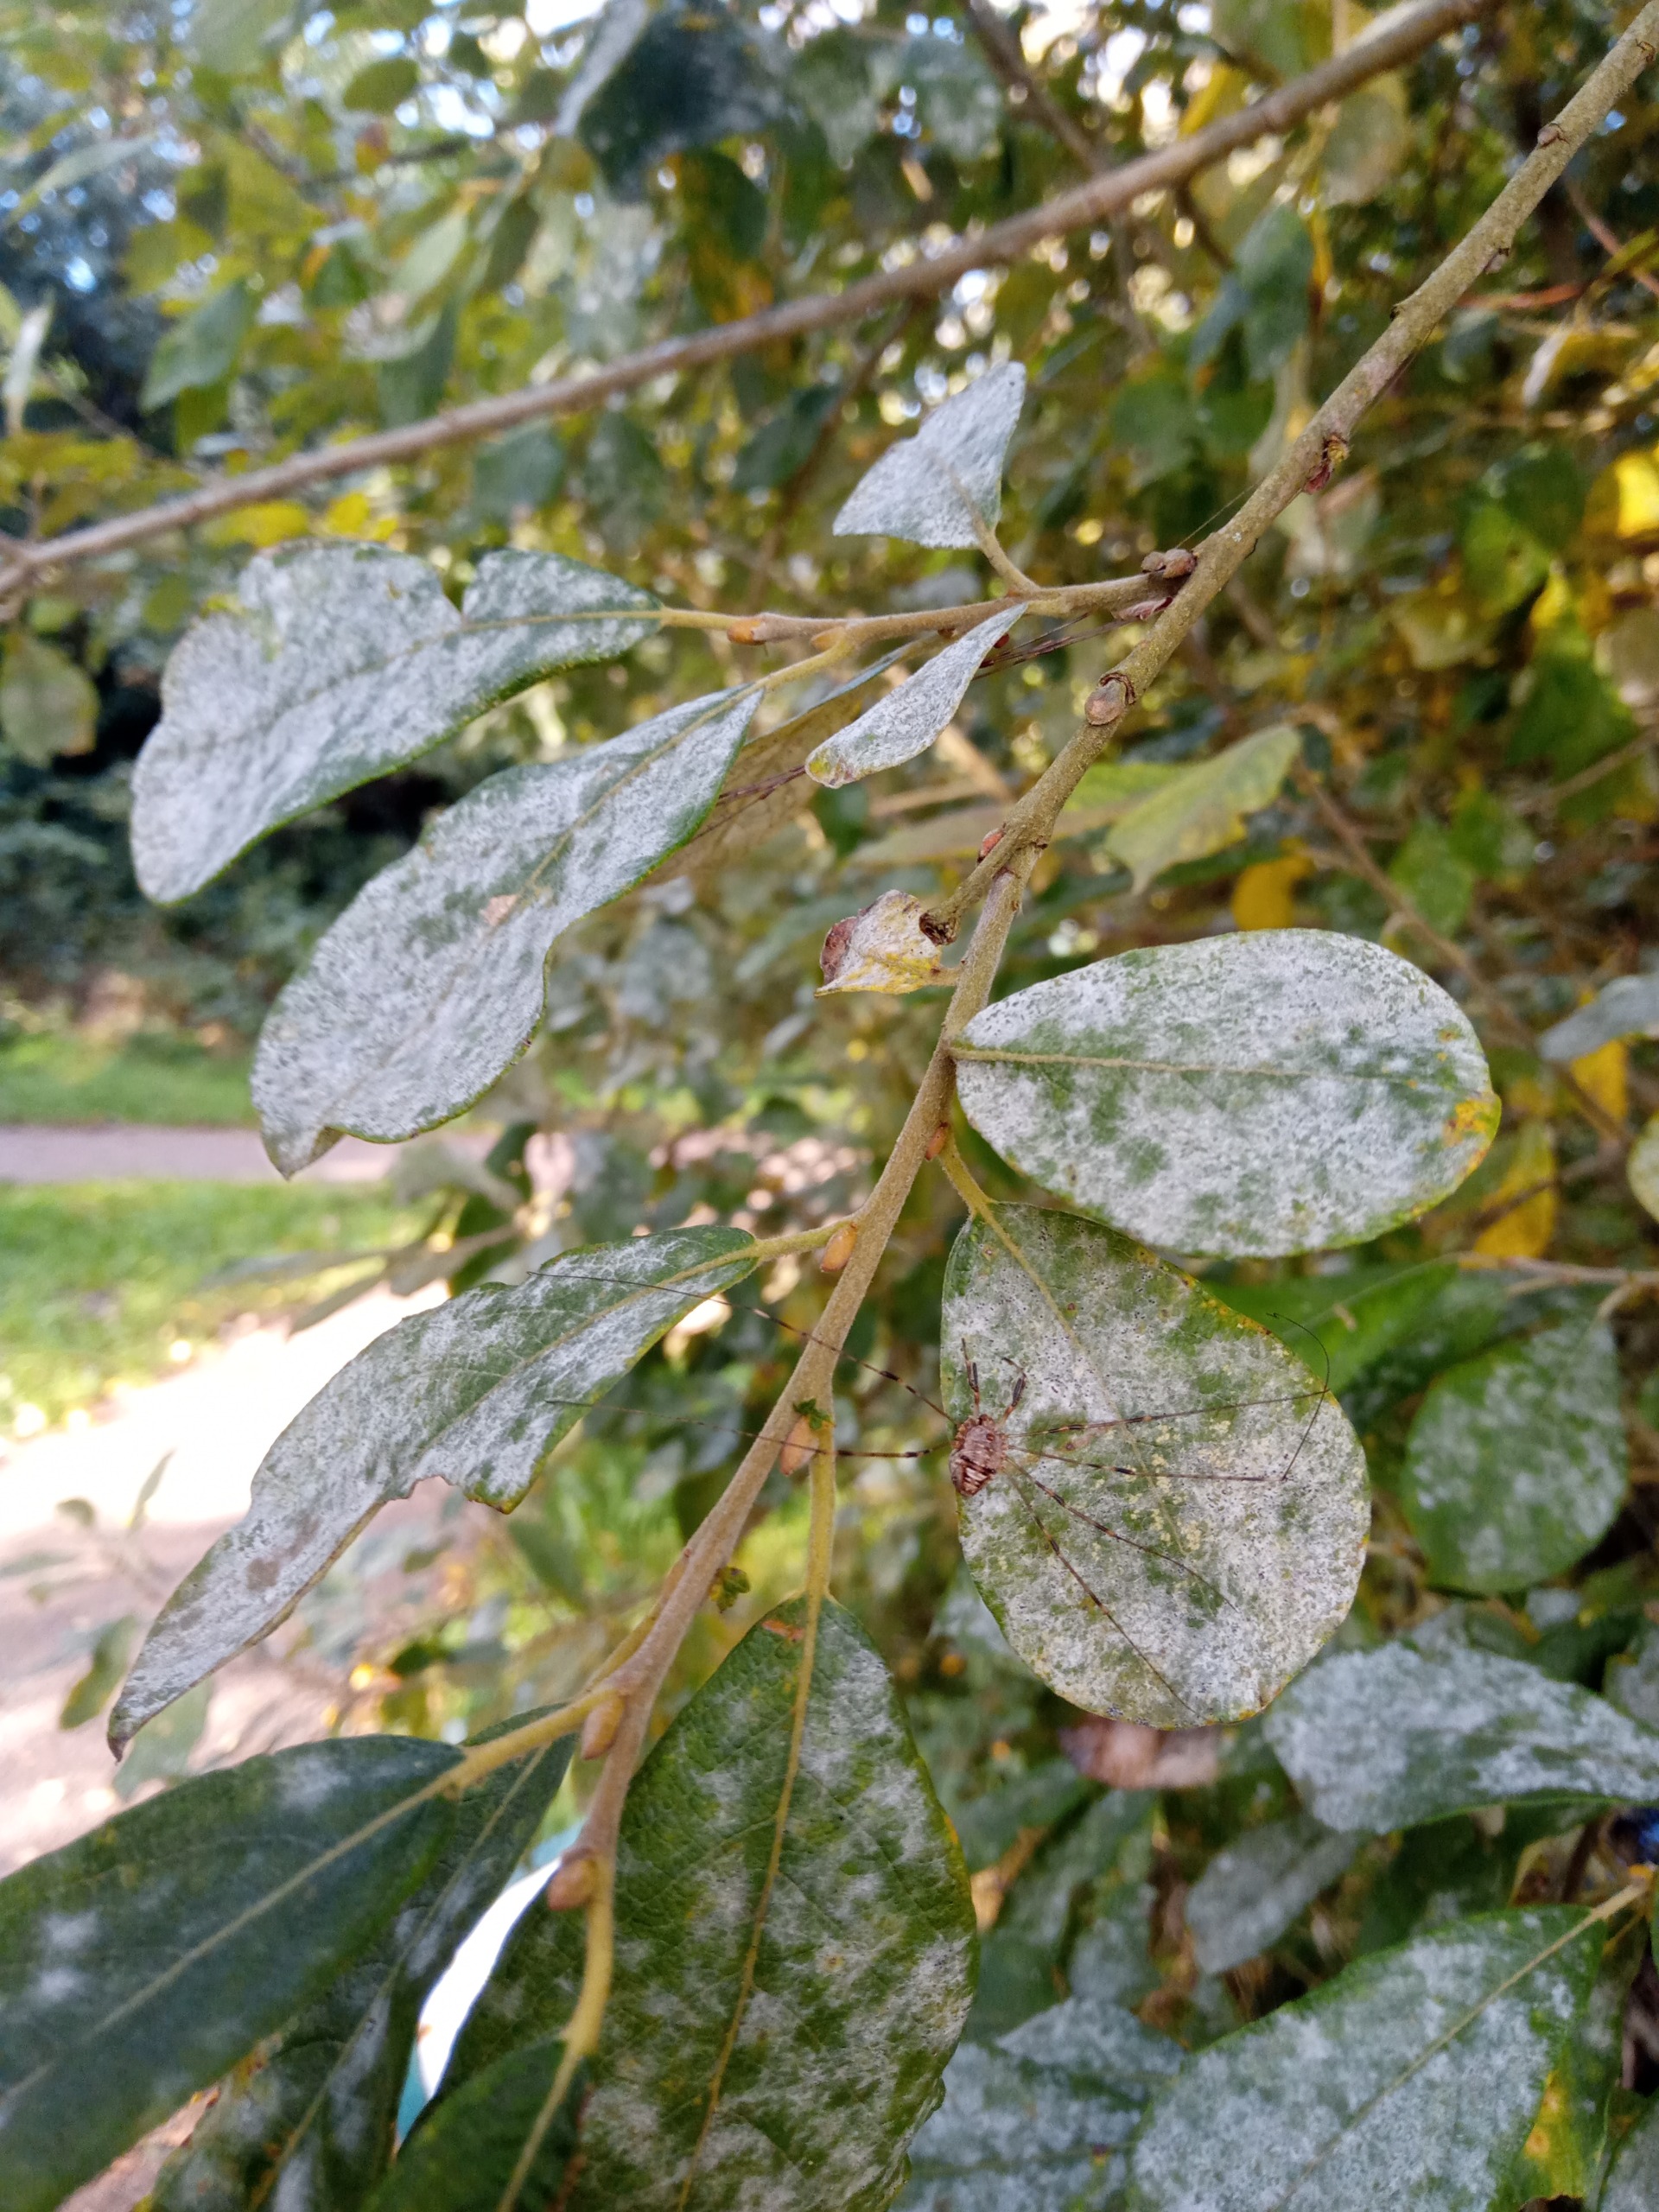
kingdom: Animalia
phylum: Arthropoda
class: Arachnida
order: Opiliones
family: Phalangiidae
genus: Dicranopalpus
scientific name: Dicranopalpus ramosus
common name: Gaffelmejer
